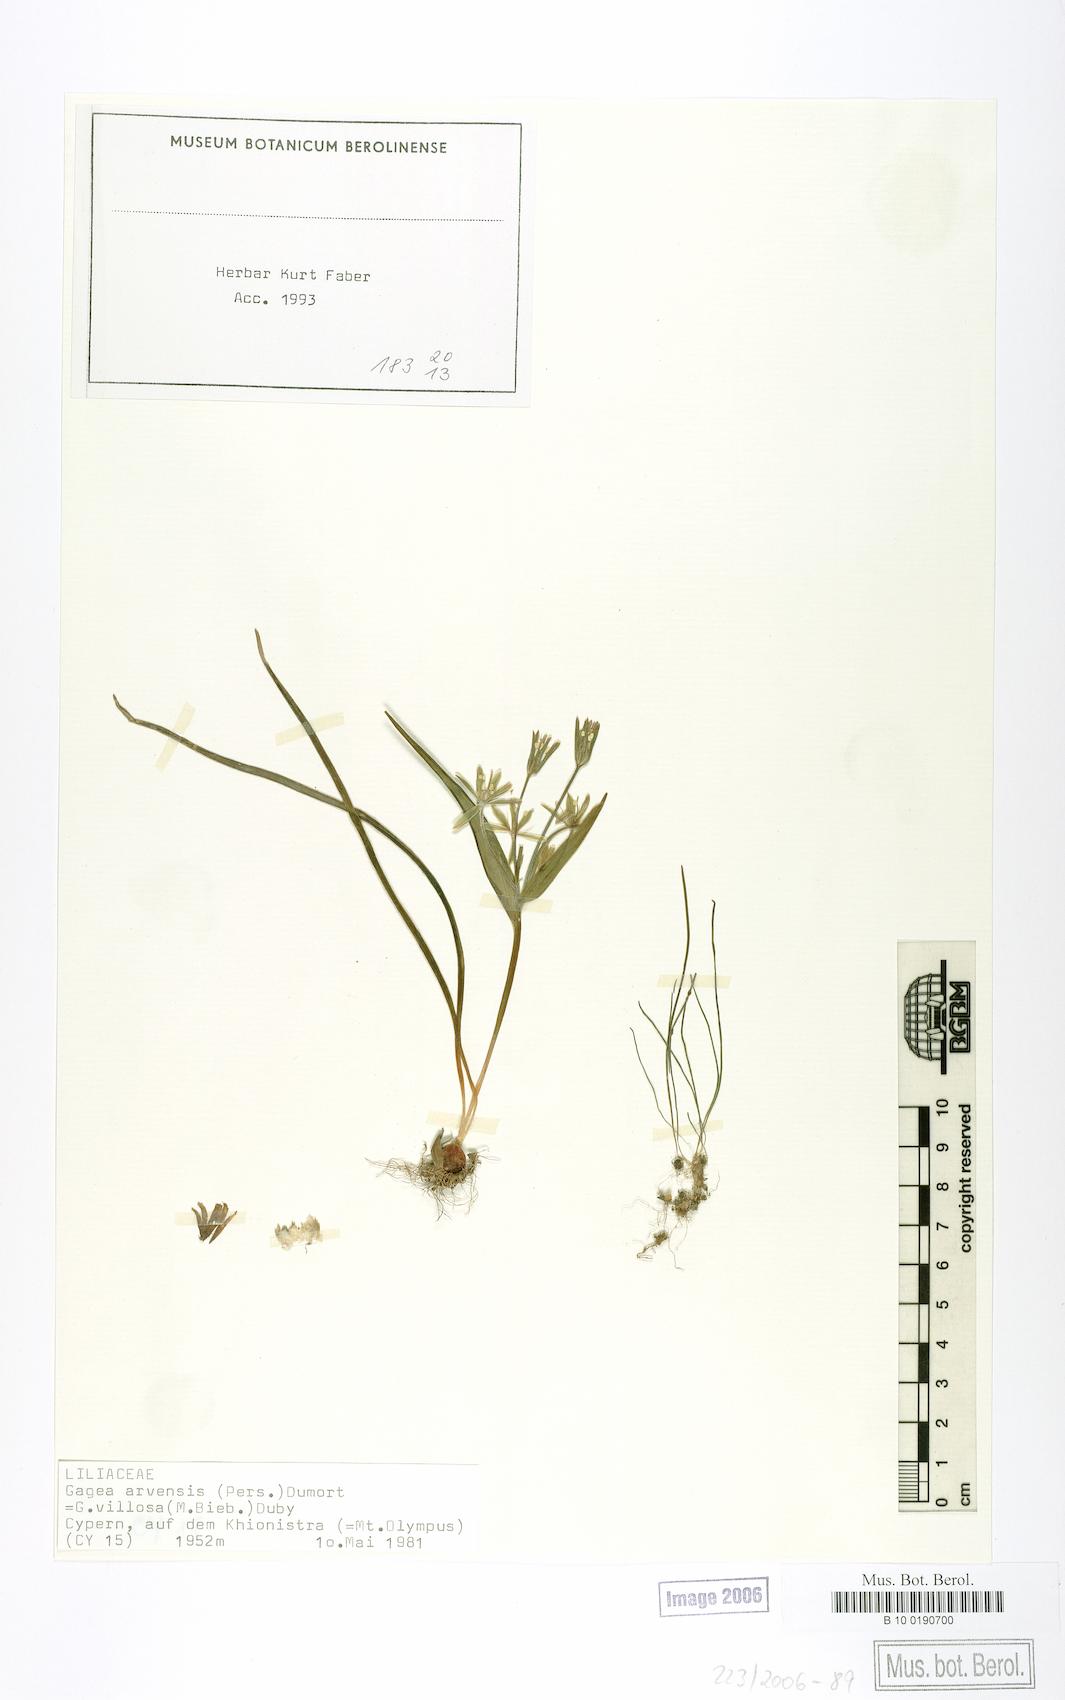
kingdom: Plantae
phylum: Tracheophyta
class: Liliopsida
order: Liliales
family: Liliaceae
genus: Gagea
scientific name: Gagea minima
